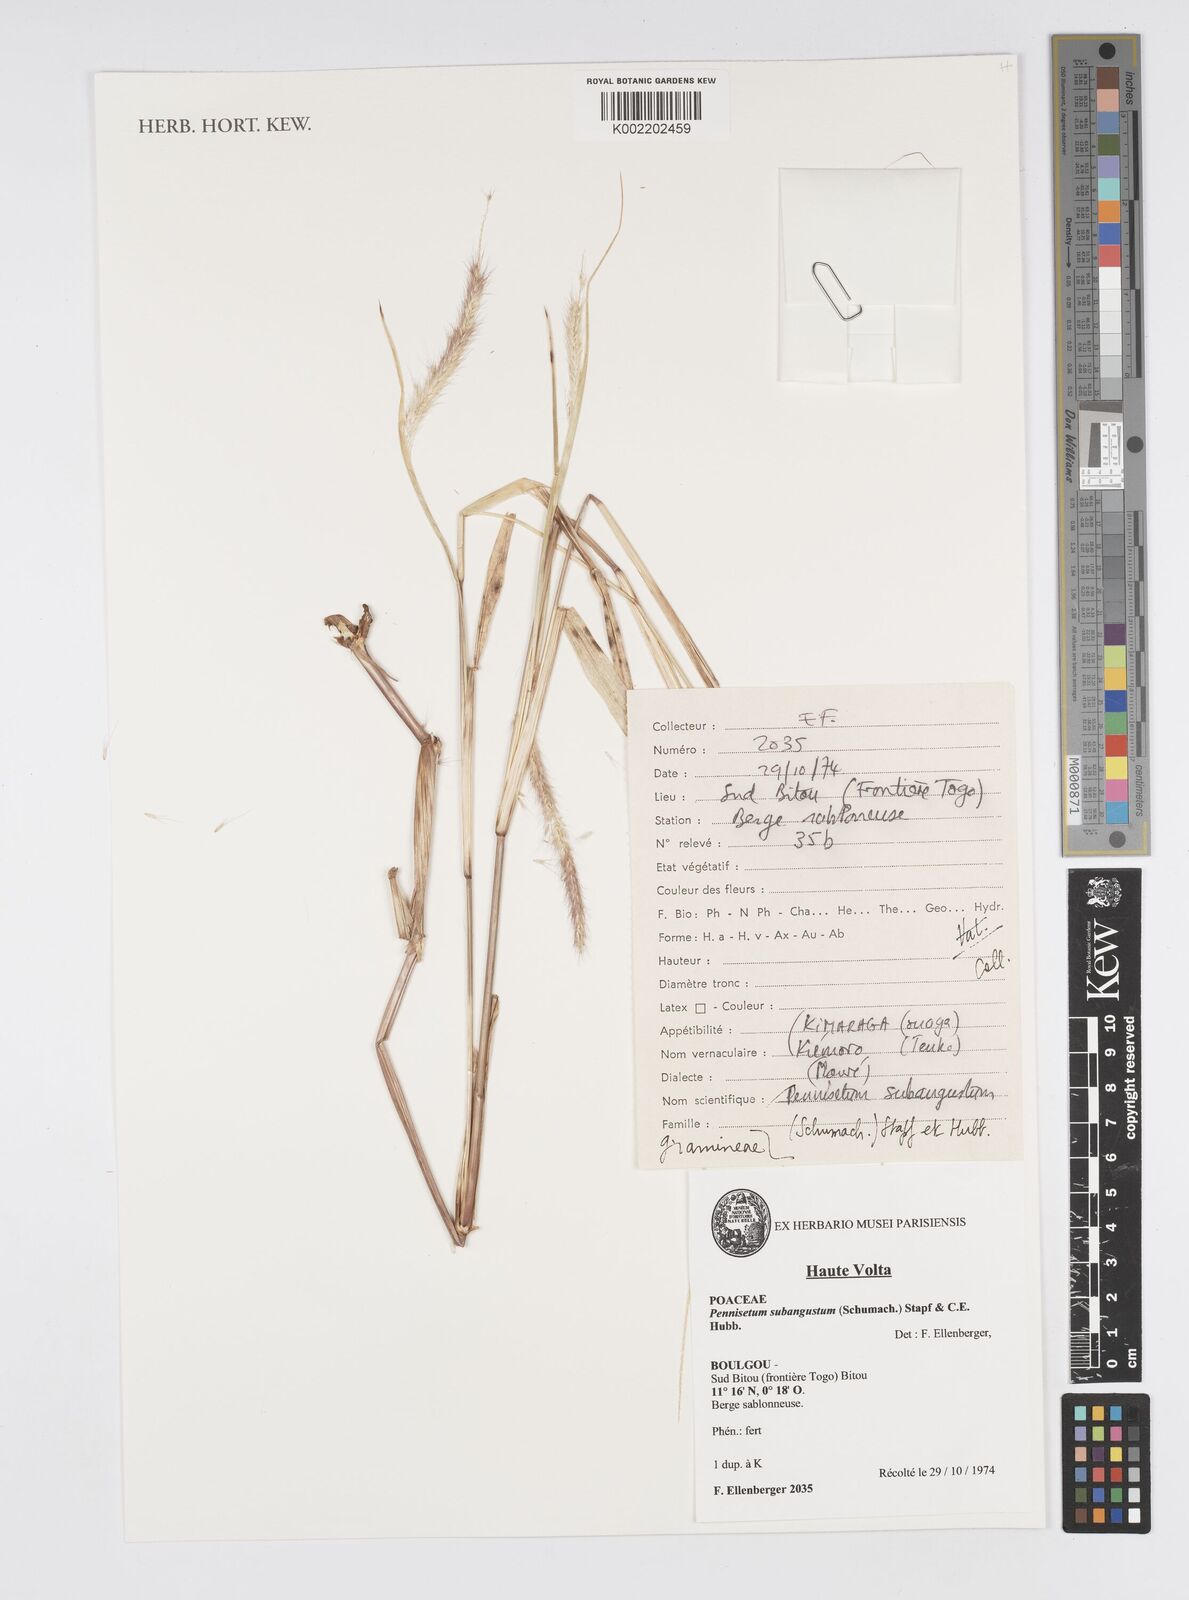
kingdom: Plantae
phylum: Tracheophyta
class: Liliopsida
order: Poales
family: Poaceae
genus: Setaria
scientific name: Setaria parviflora
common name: Knotroot bristle-grass
